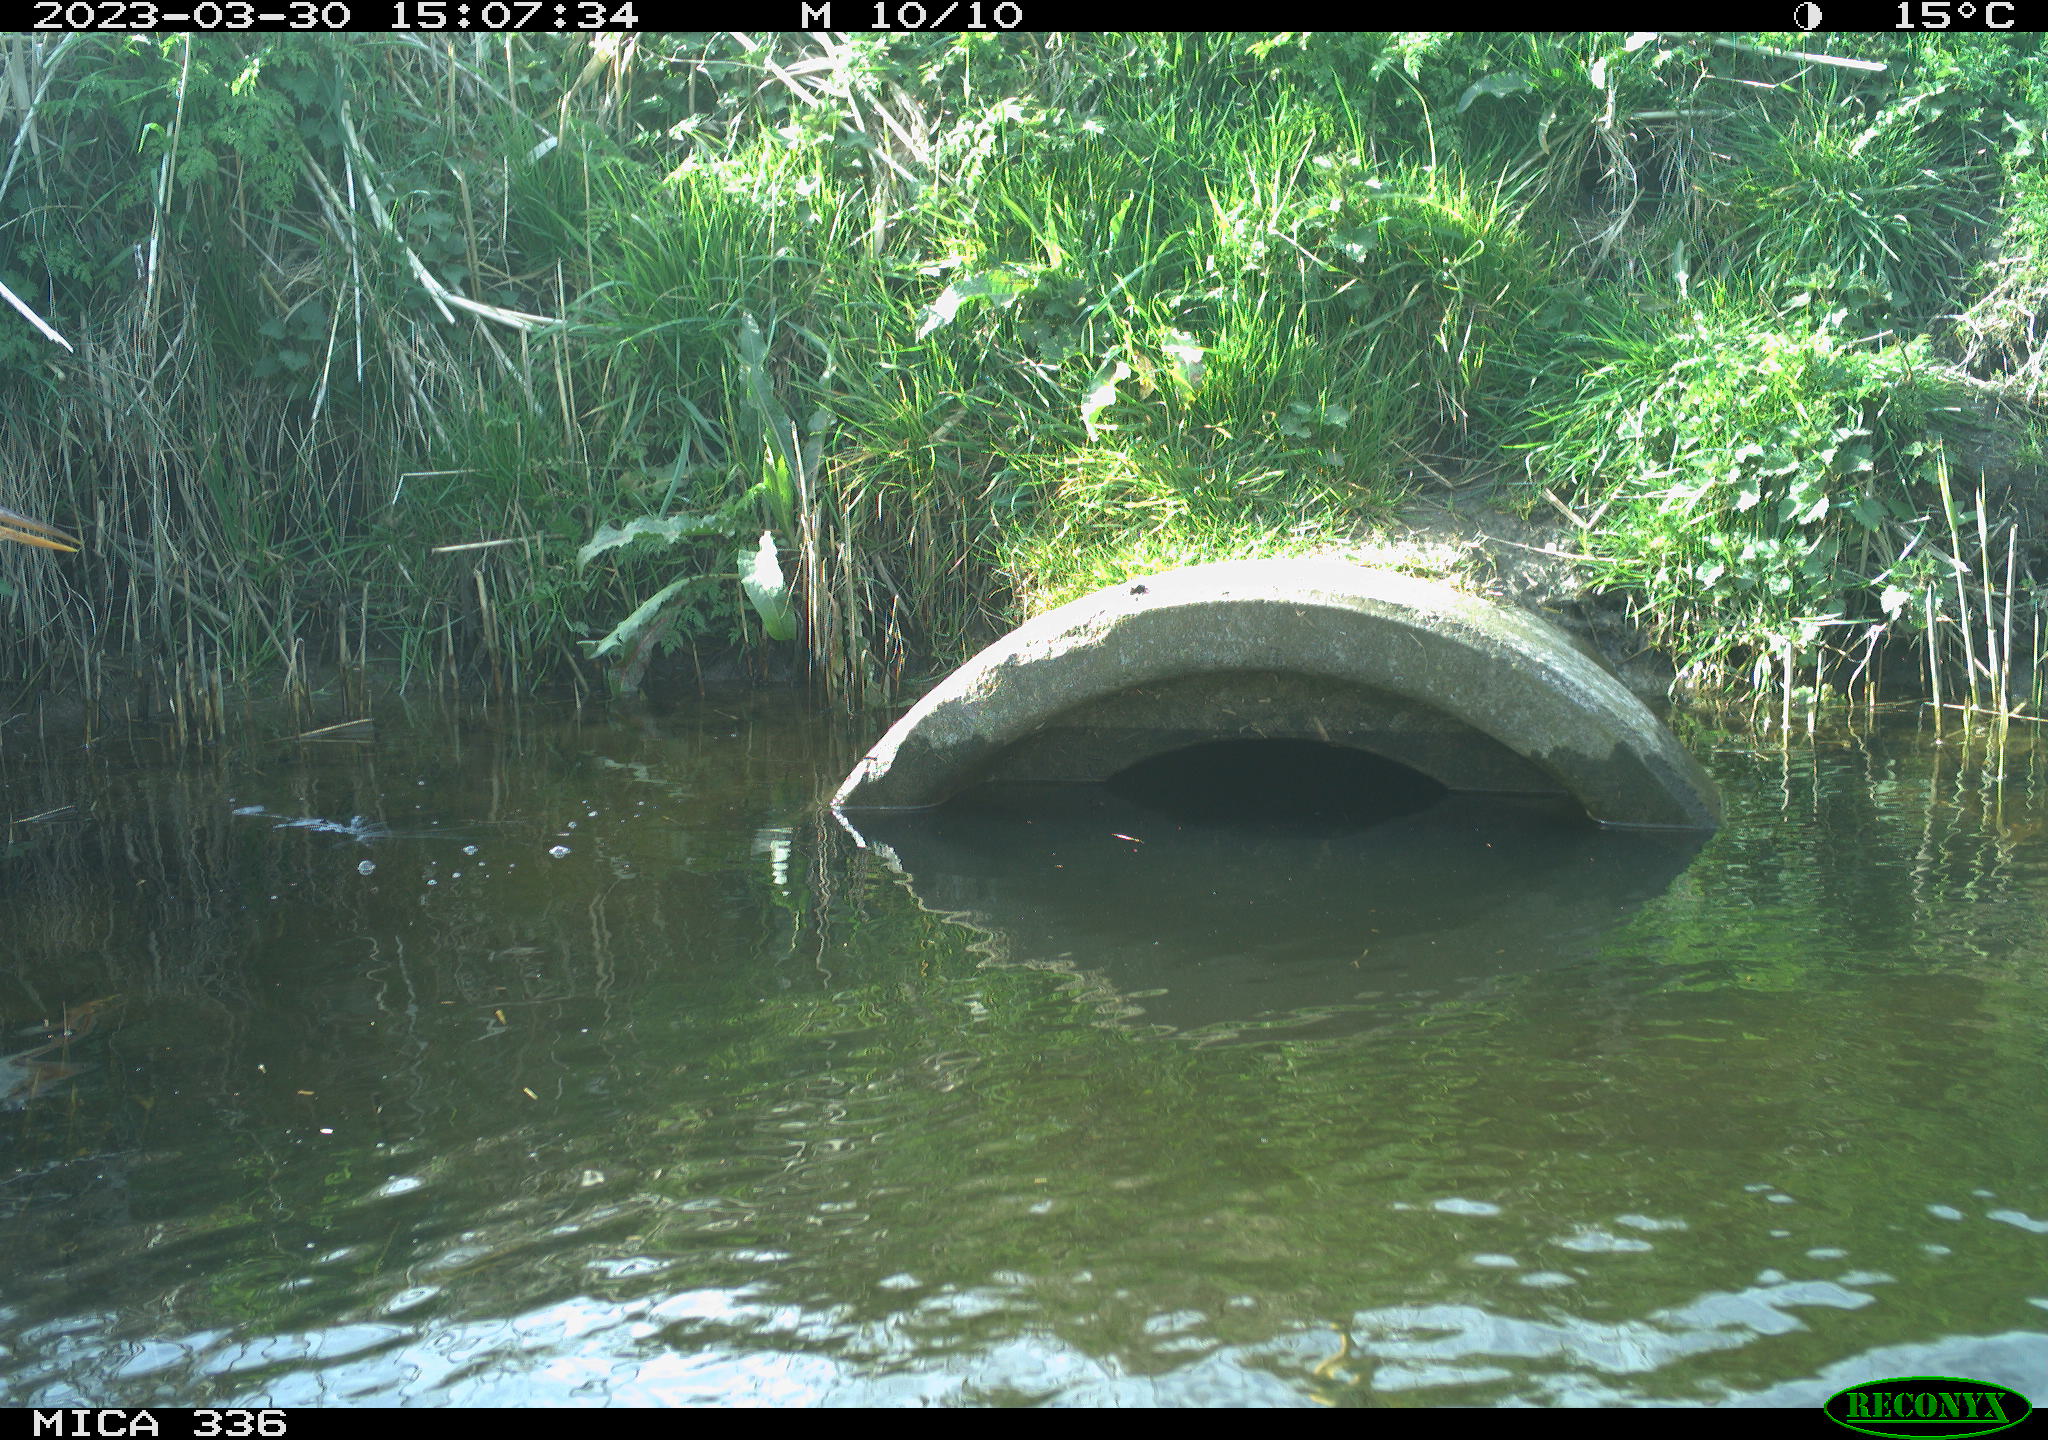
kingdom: Animalia
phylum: Chordata
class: Aves
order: Pelecaniformes
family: Ardeidae
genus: Ardea
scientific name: Ardea cinerea
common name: Grey heron
